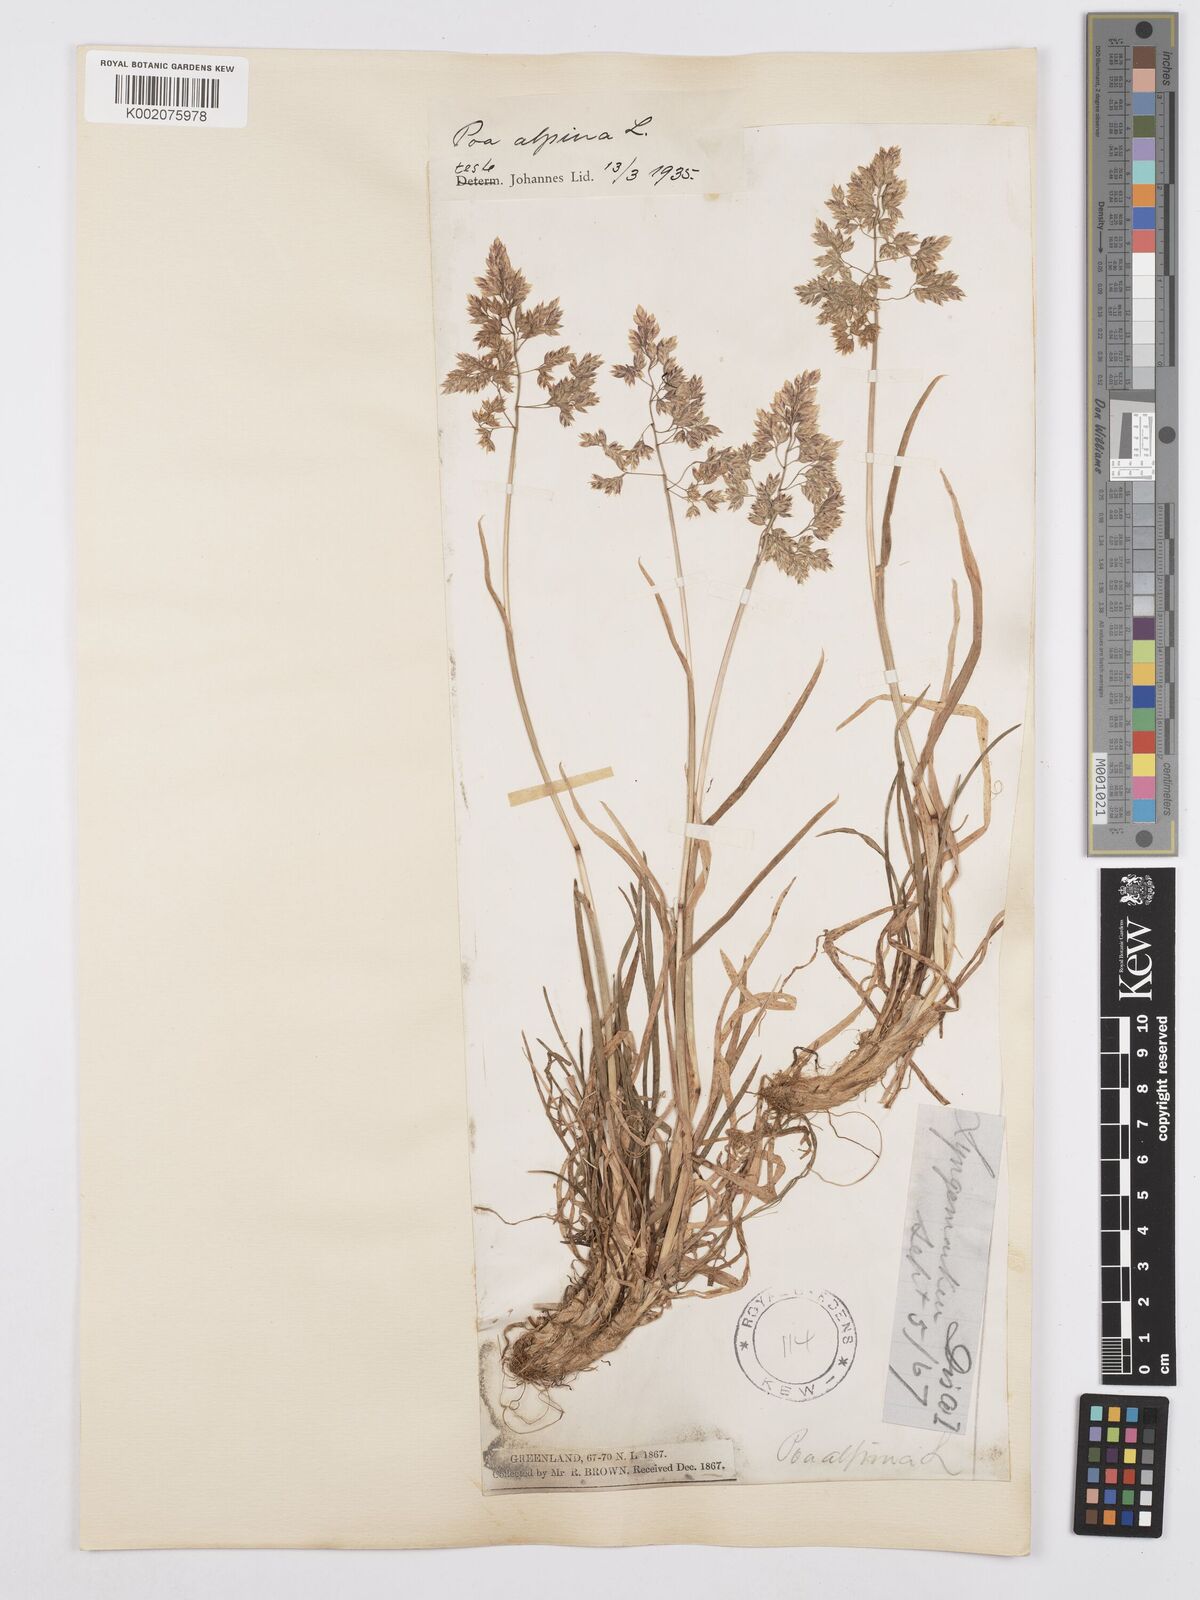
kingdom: Plantae
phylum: Tracheophyta
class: Liliopsida
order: Poales
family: Poaceae
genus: Poa
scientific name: Poa alpina
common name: Alpine bluegrass
